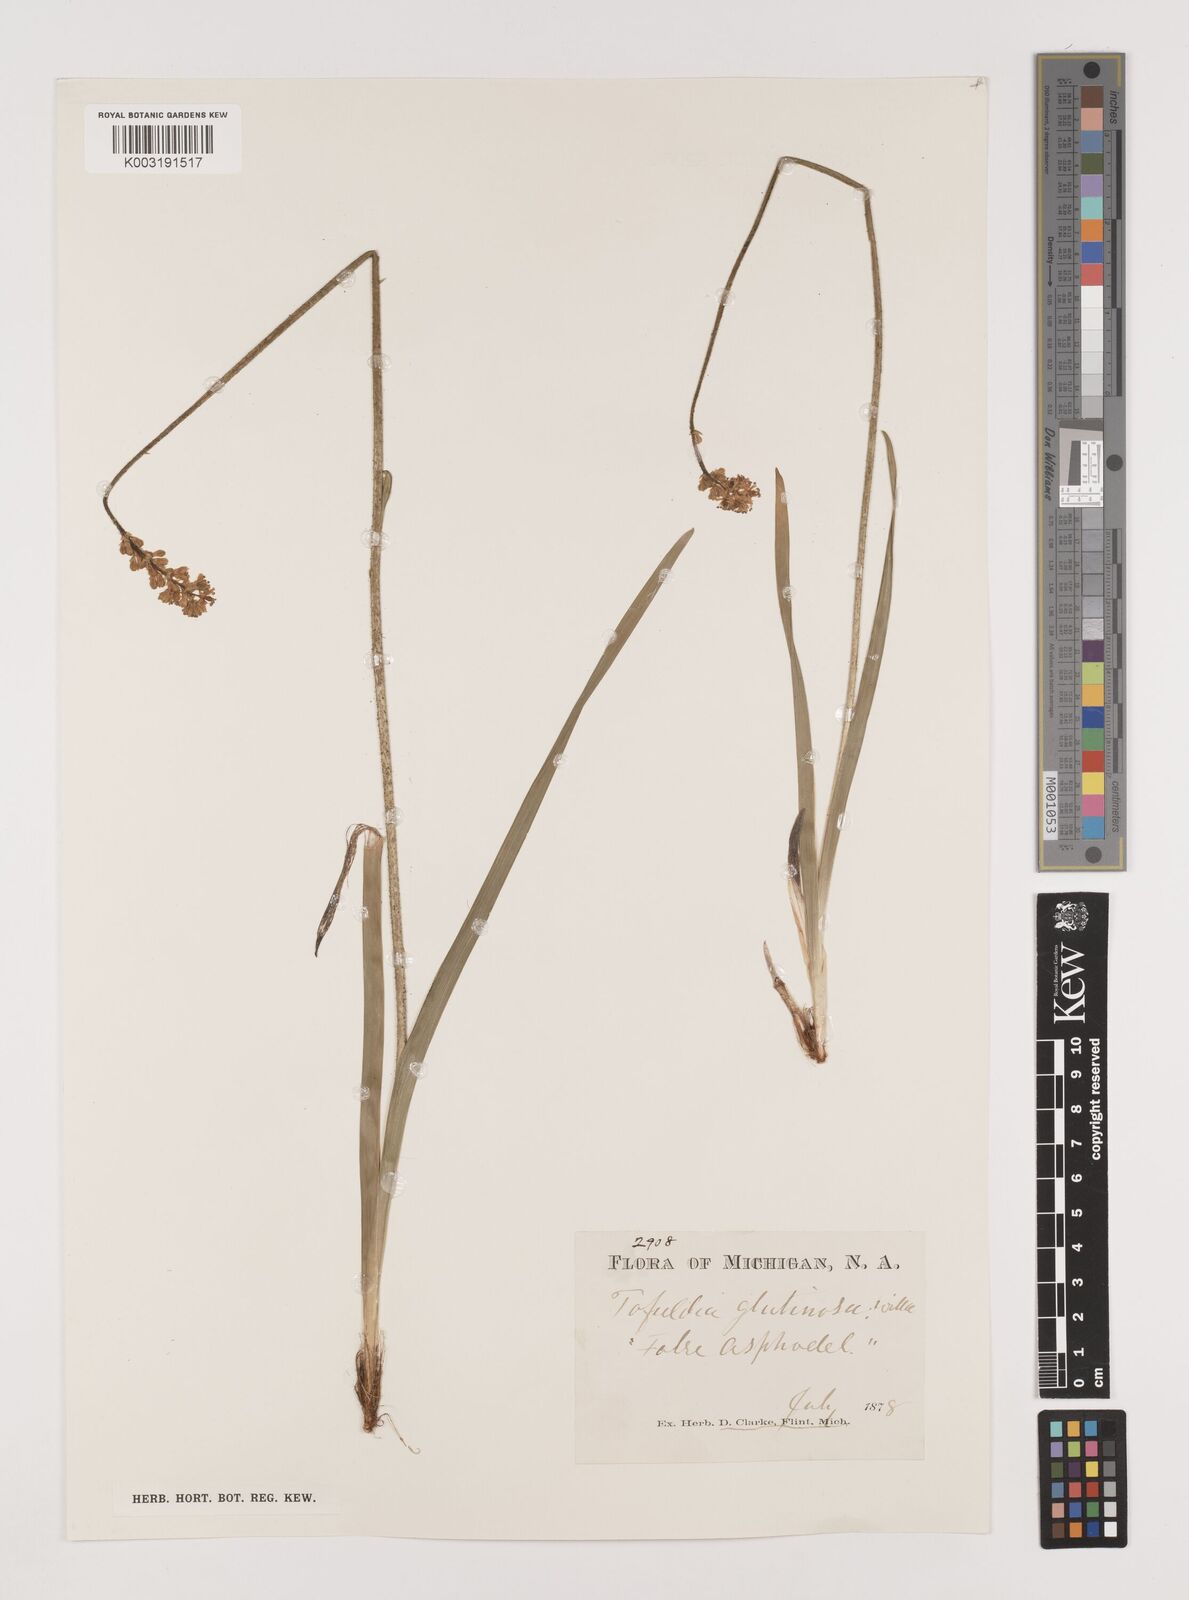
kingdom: Plantae
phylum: Tracheophyta
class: Liliopsida
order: Alismatales
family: Tofieldiaceae
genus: Triantha
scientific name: Triantha glutinosa
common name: Glutinous tofieldia
